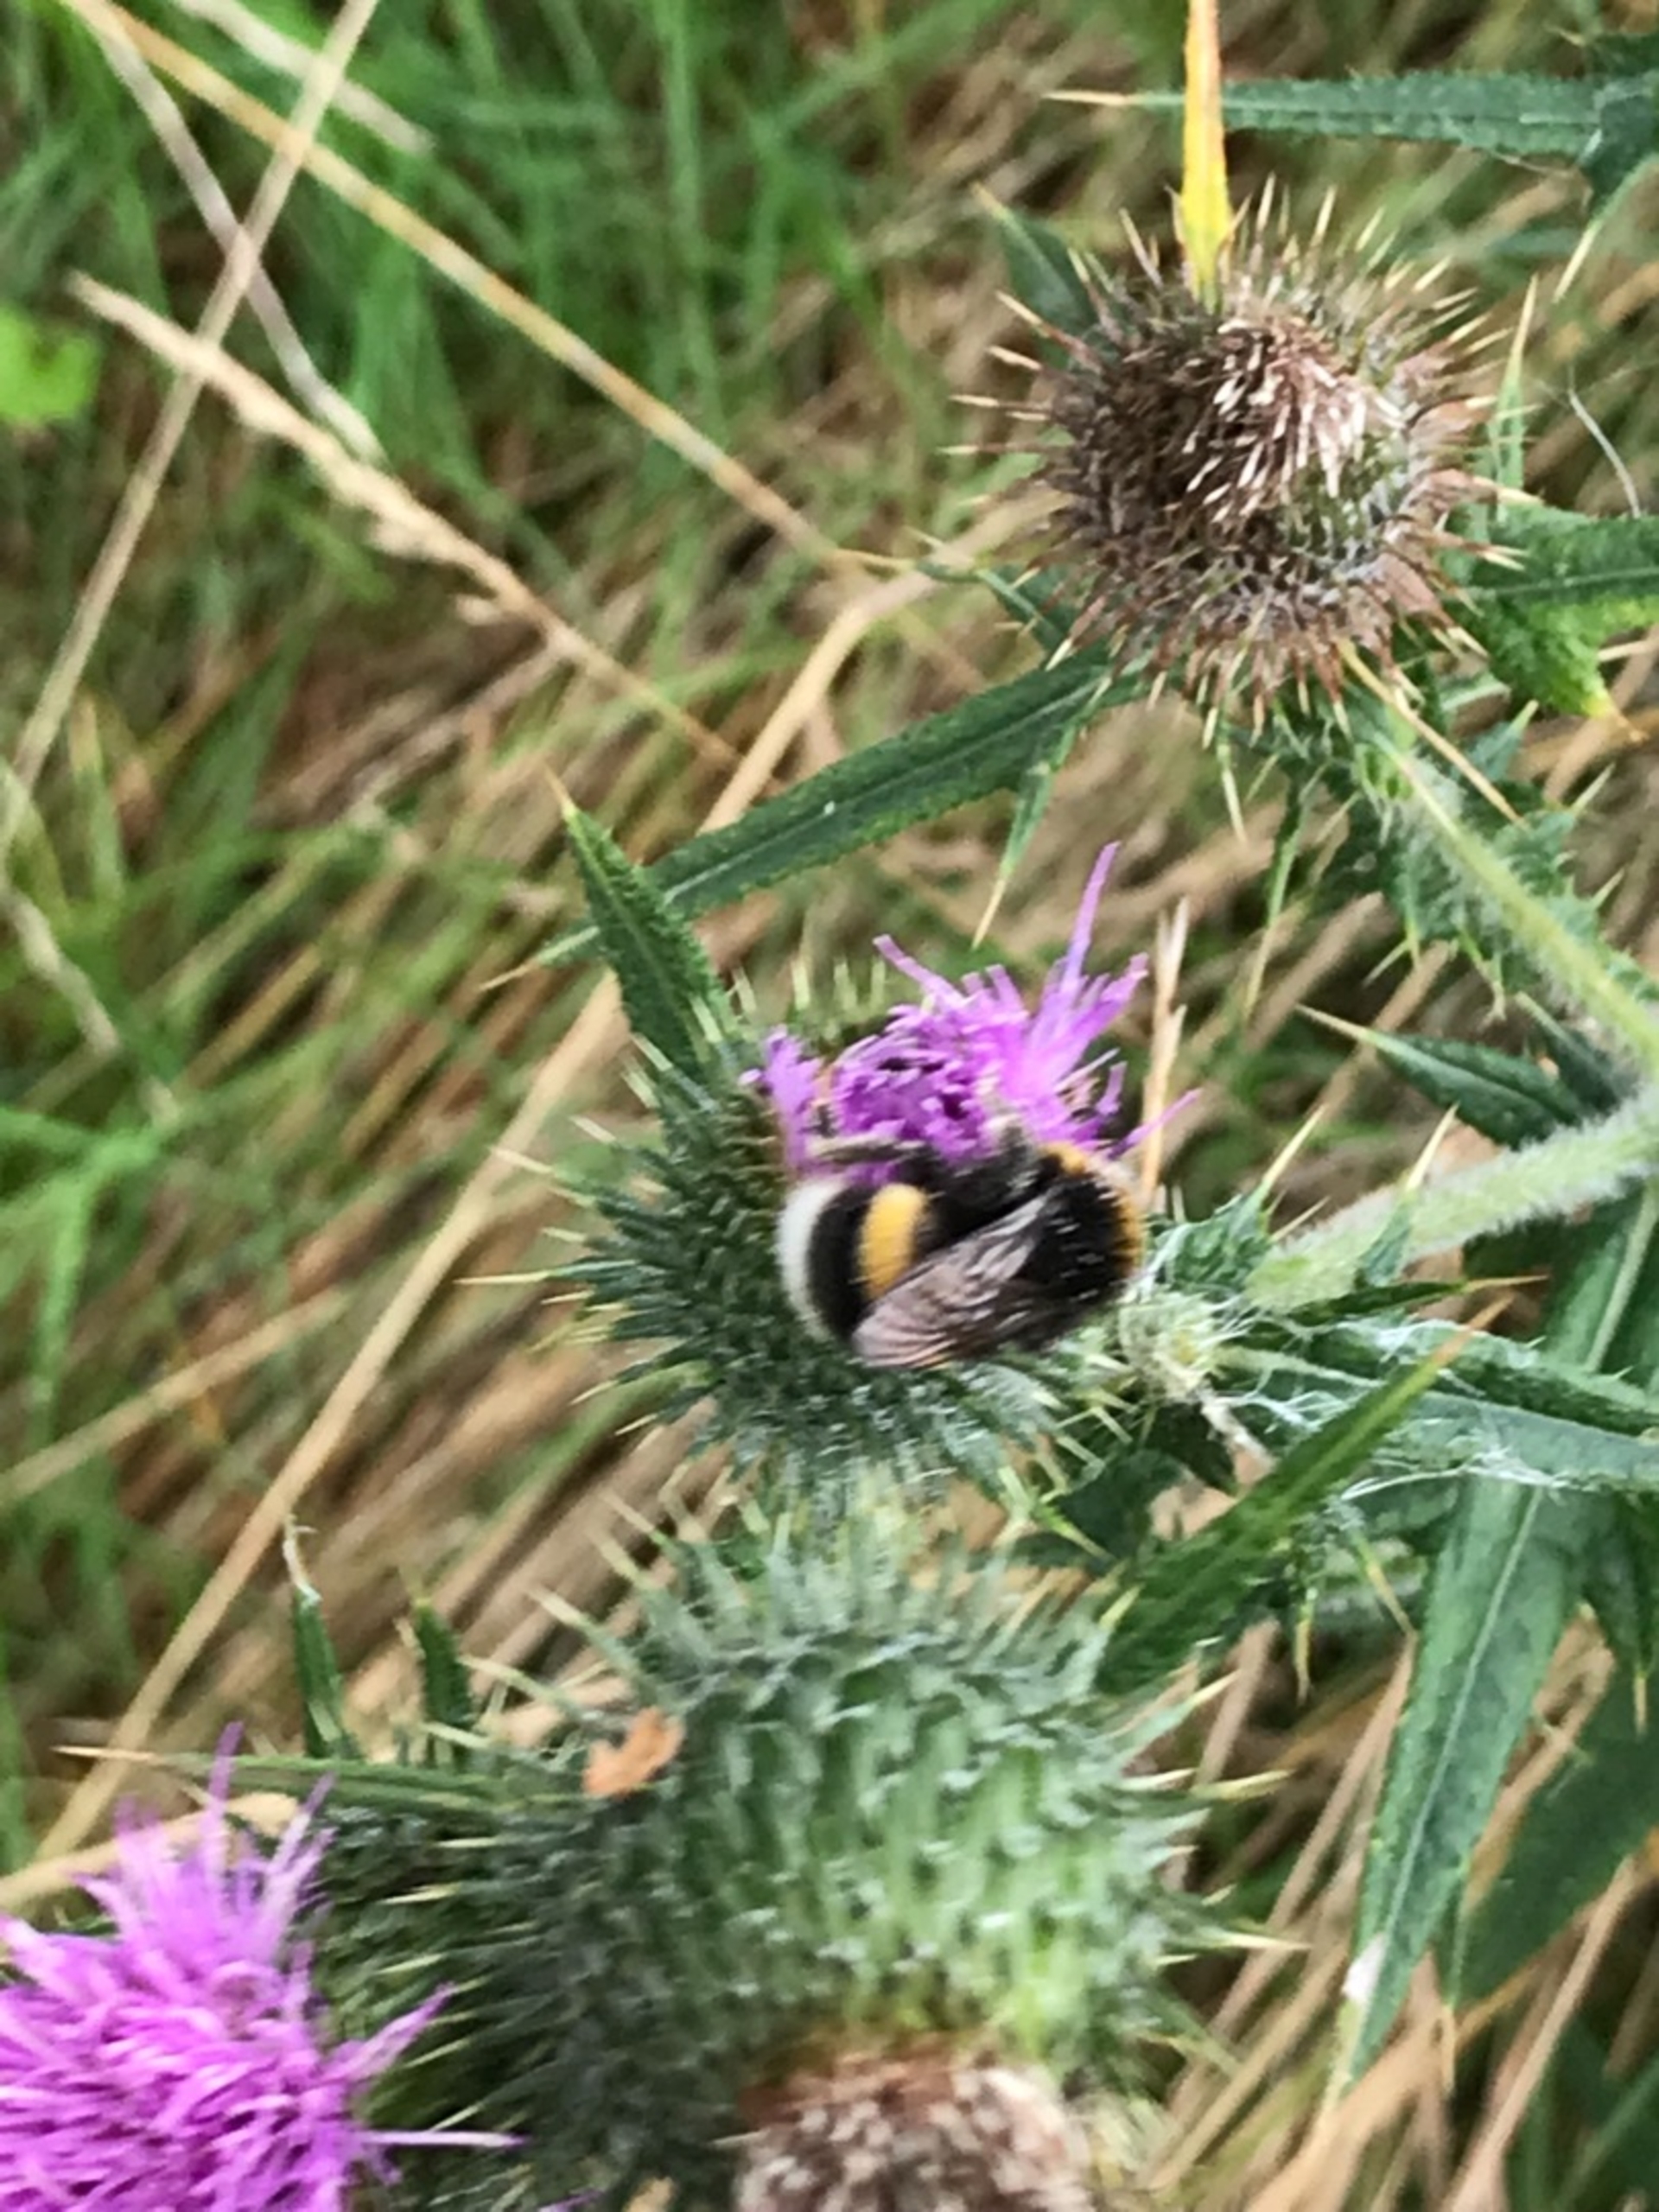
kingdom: Animalia
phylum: Arthropoda
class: Insecta
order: Hymenoptera
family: Apidae
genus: Bombus
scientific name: Bombus
